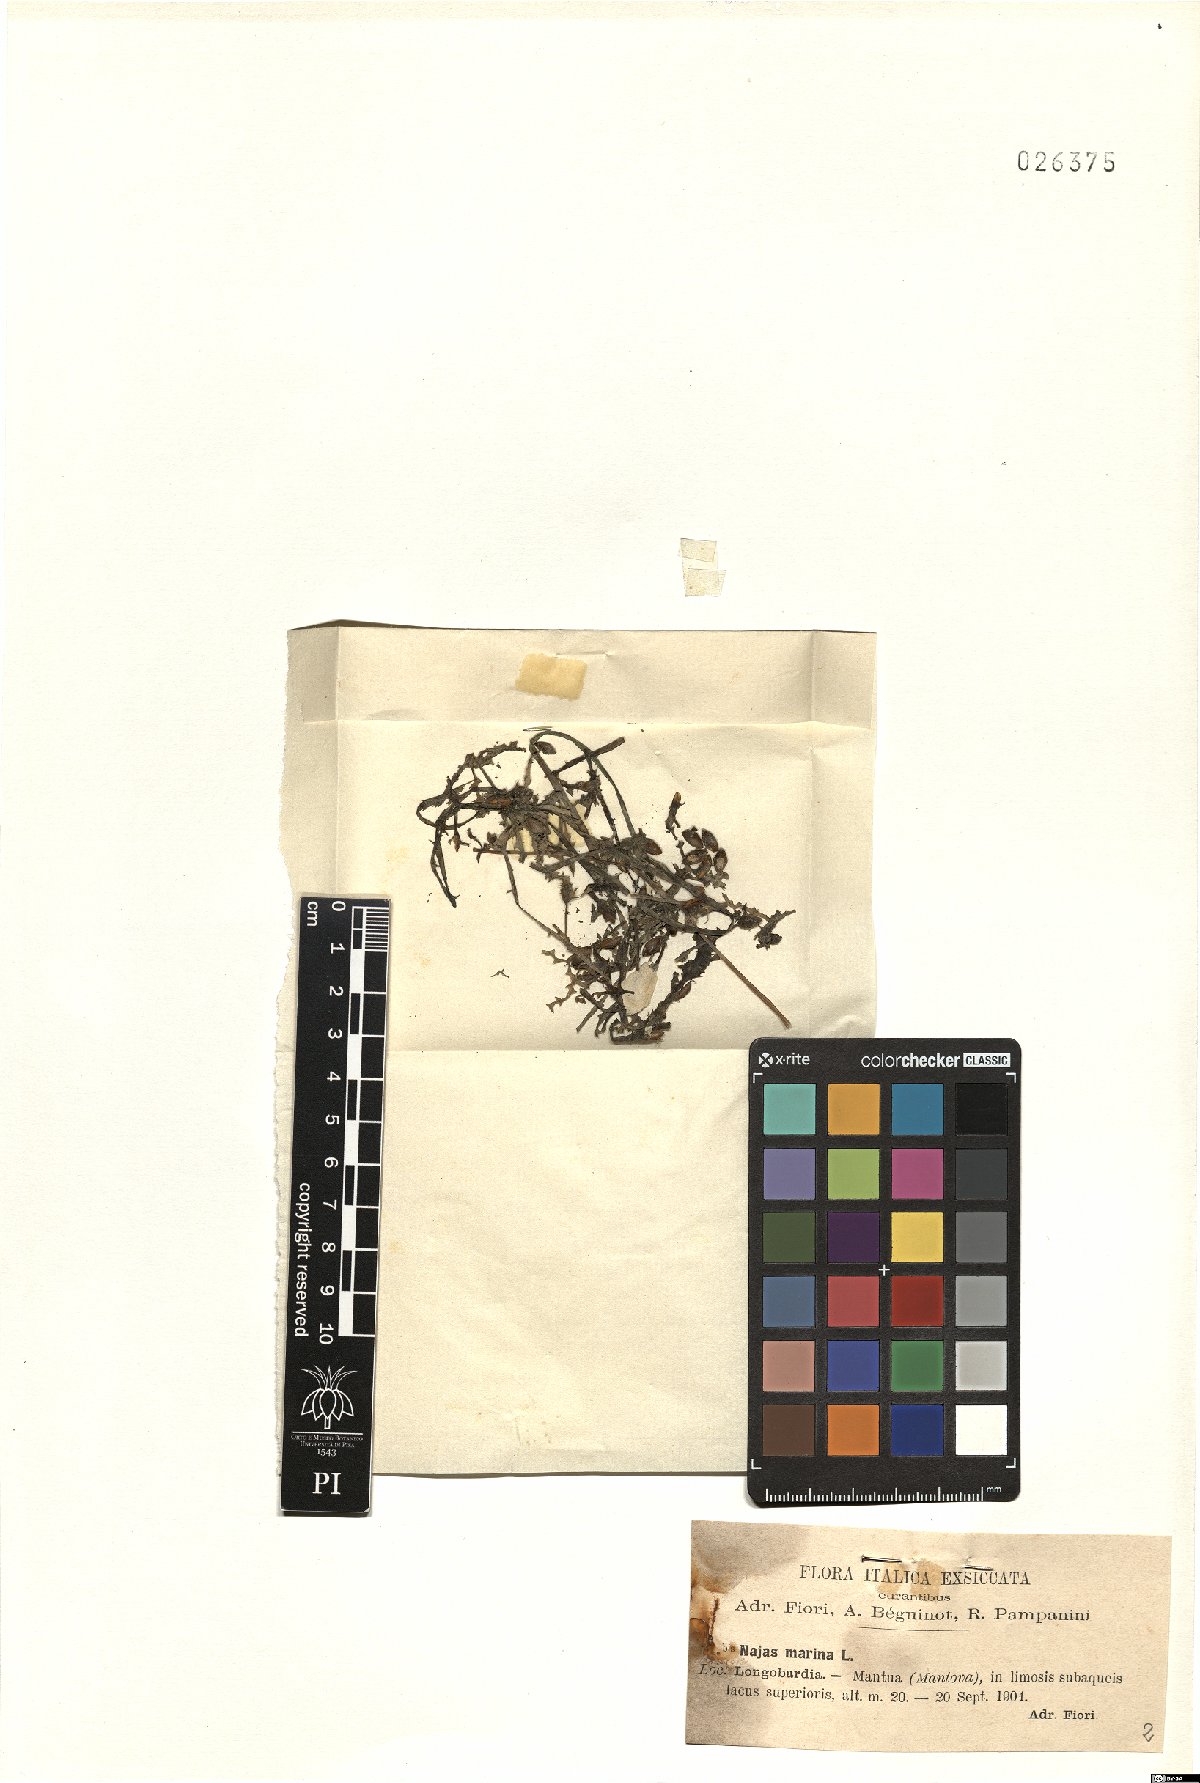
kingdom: Plantae
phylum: Tracheophyta
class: Liliopsida
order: Alismatales
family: Hydrocharitaceae
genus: Najas
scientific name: Najas marina
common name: Holly-leaved naiad
